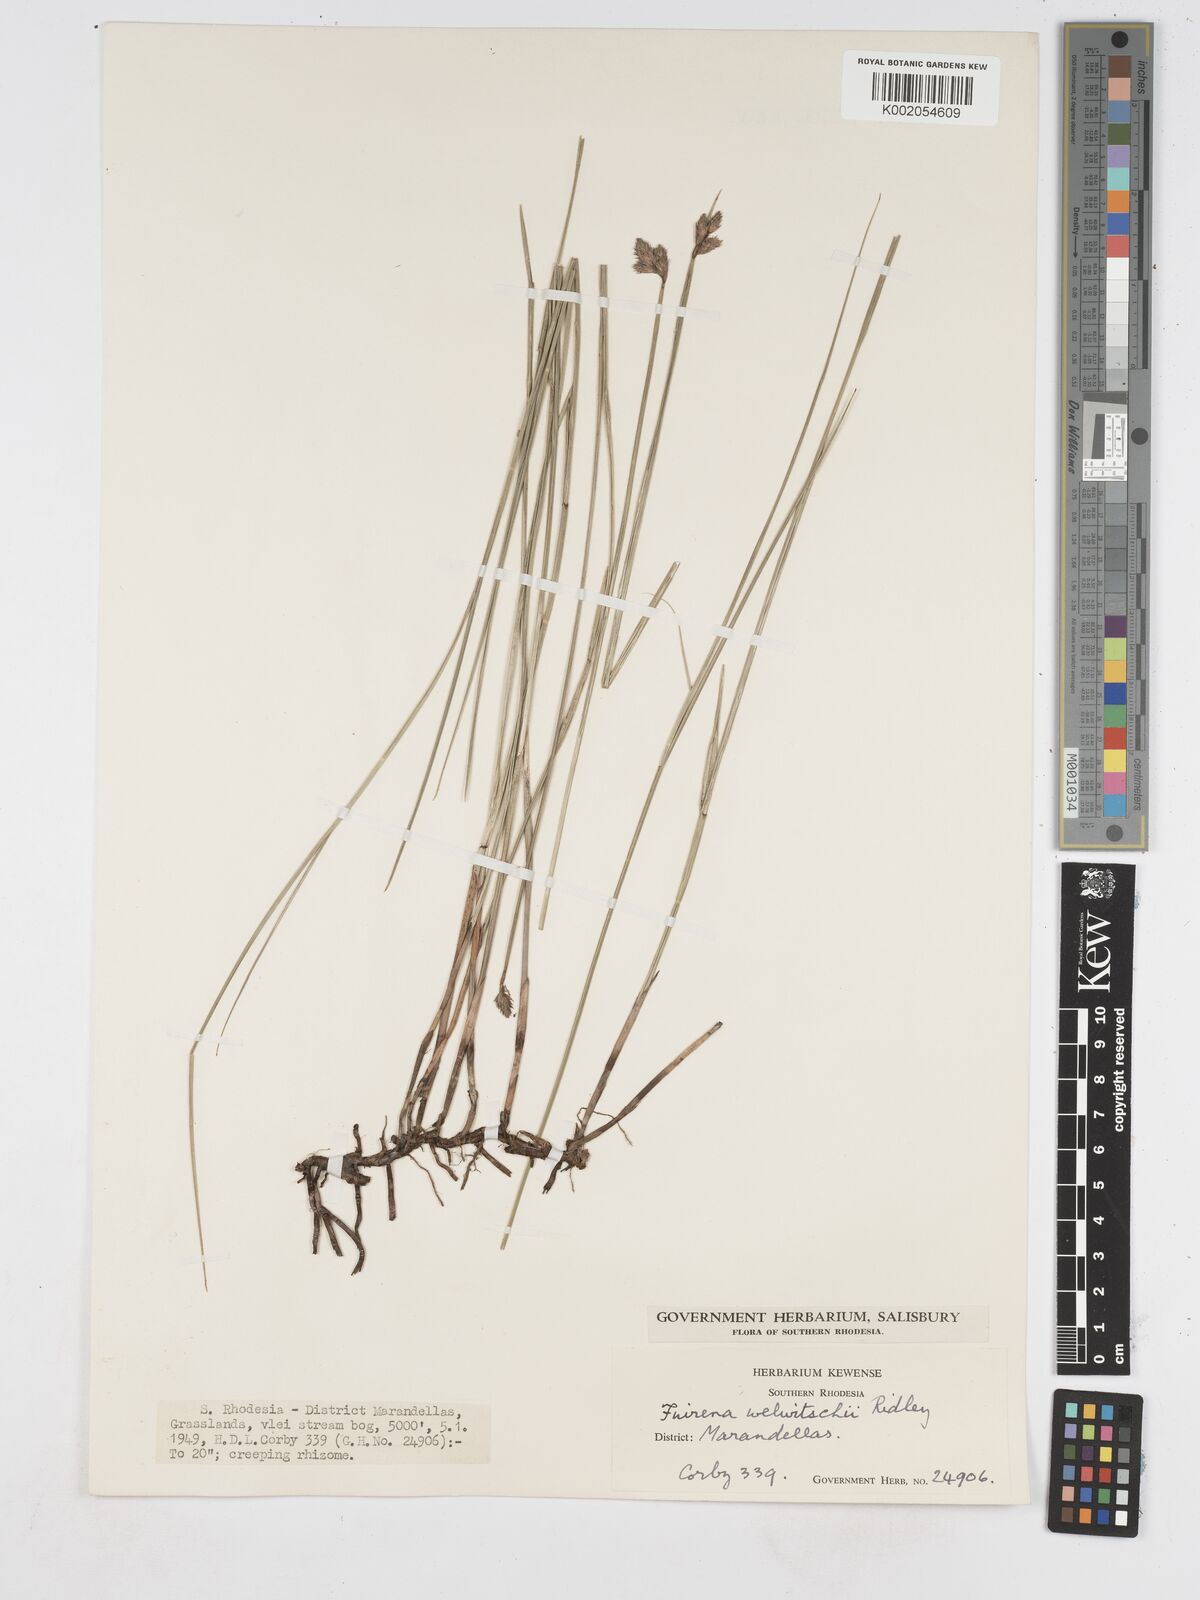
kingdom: Plantae
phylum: Tracheophyta
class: Liliopsida
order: Poales
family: Cyperaceae
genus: Fuirena
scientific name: Fuirena welwitschii
